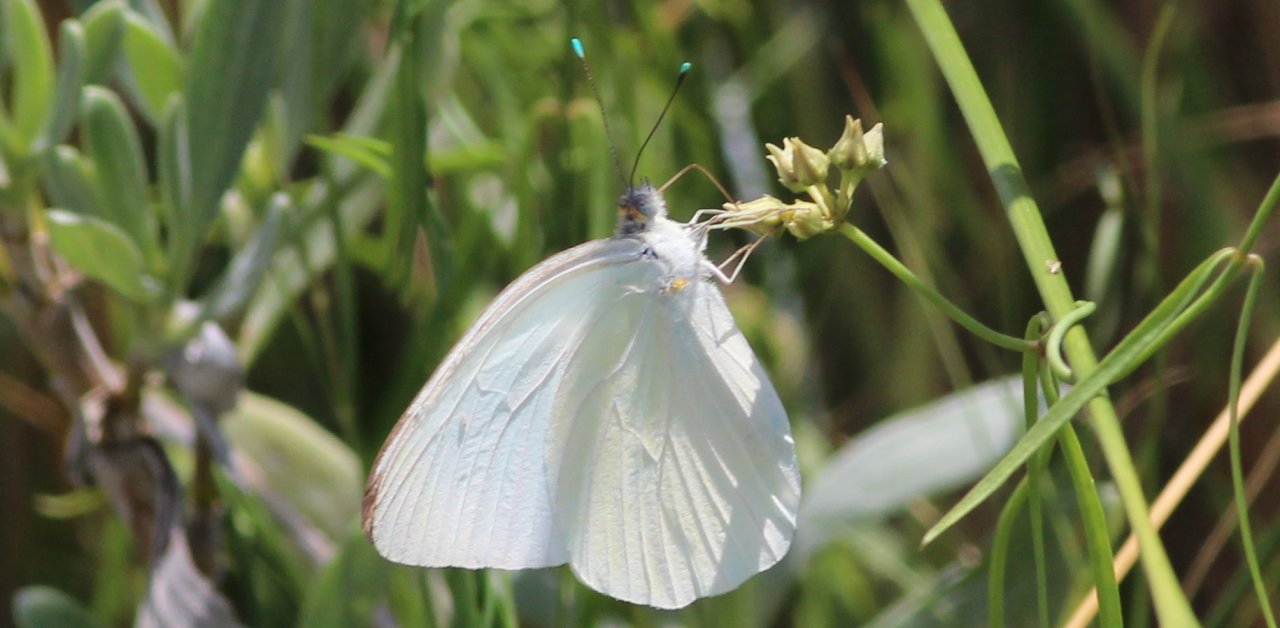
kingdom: Animalia
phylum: Arthropoda
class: Insecta
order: Lepidoptera
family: Pieridae
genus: Ascia
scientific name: Ascia monuste
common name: Great Southern White
